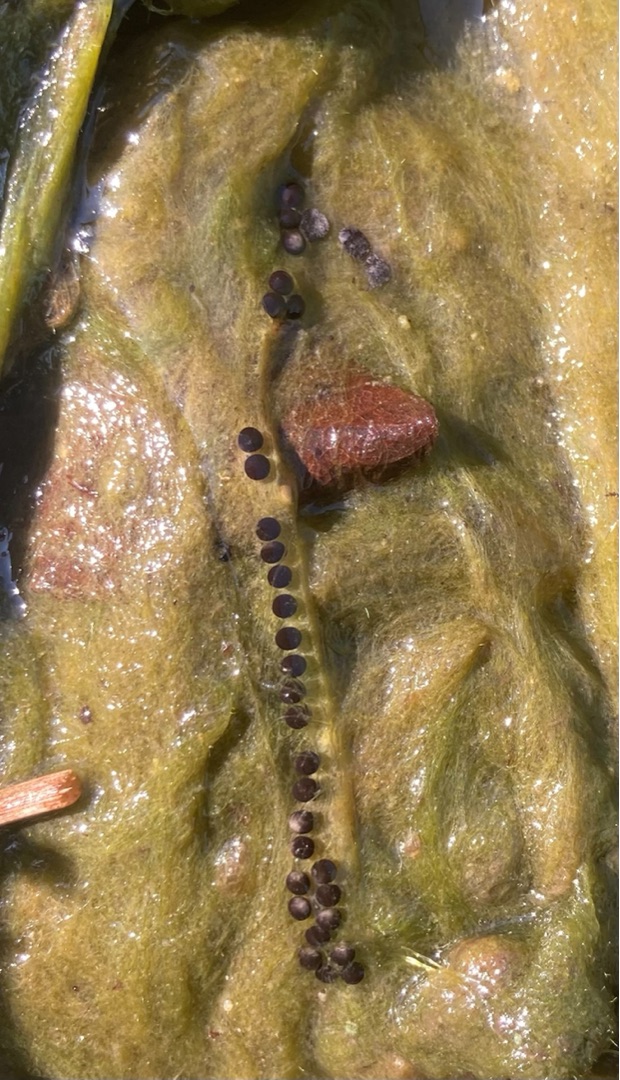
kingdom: Animalia
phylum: Chordata
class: Amphibia
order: Anura
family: Bufonidae
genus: Bufo
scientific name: Bufo bufo
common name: Skrubtudse
